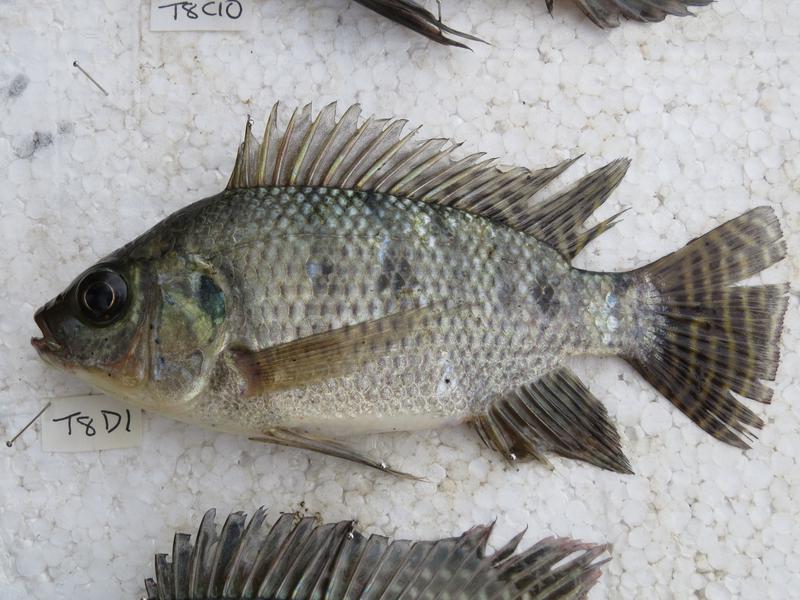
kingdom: Animalia
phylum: Chordata
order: Perciformes
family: Cichlidae
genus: Oreochromis
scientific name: Oreochromis niloticus
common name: Nile tilapia
